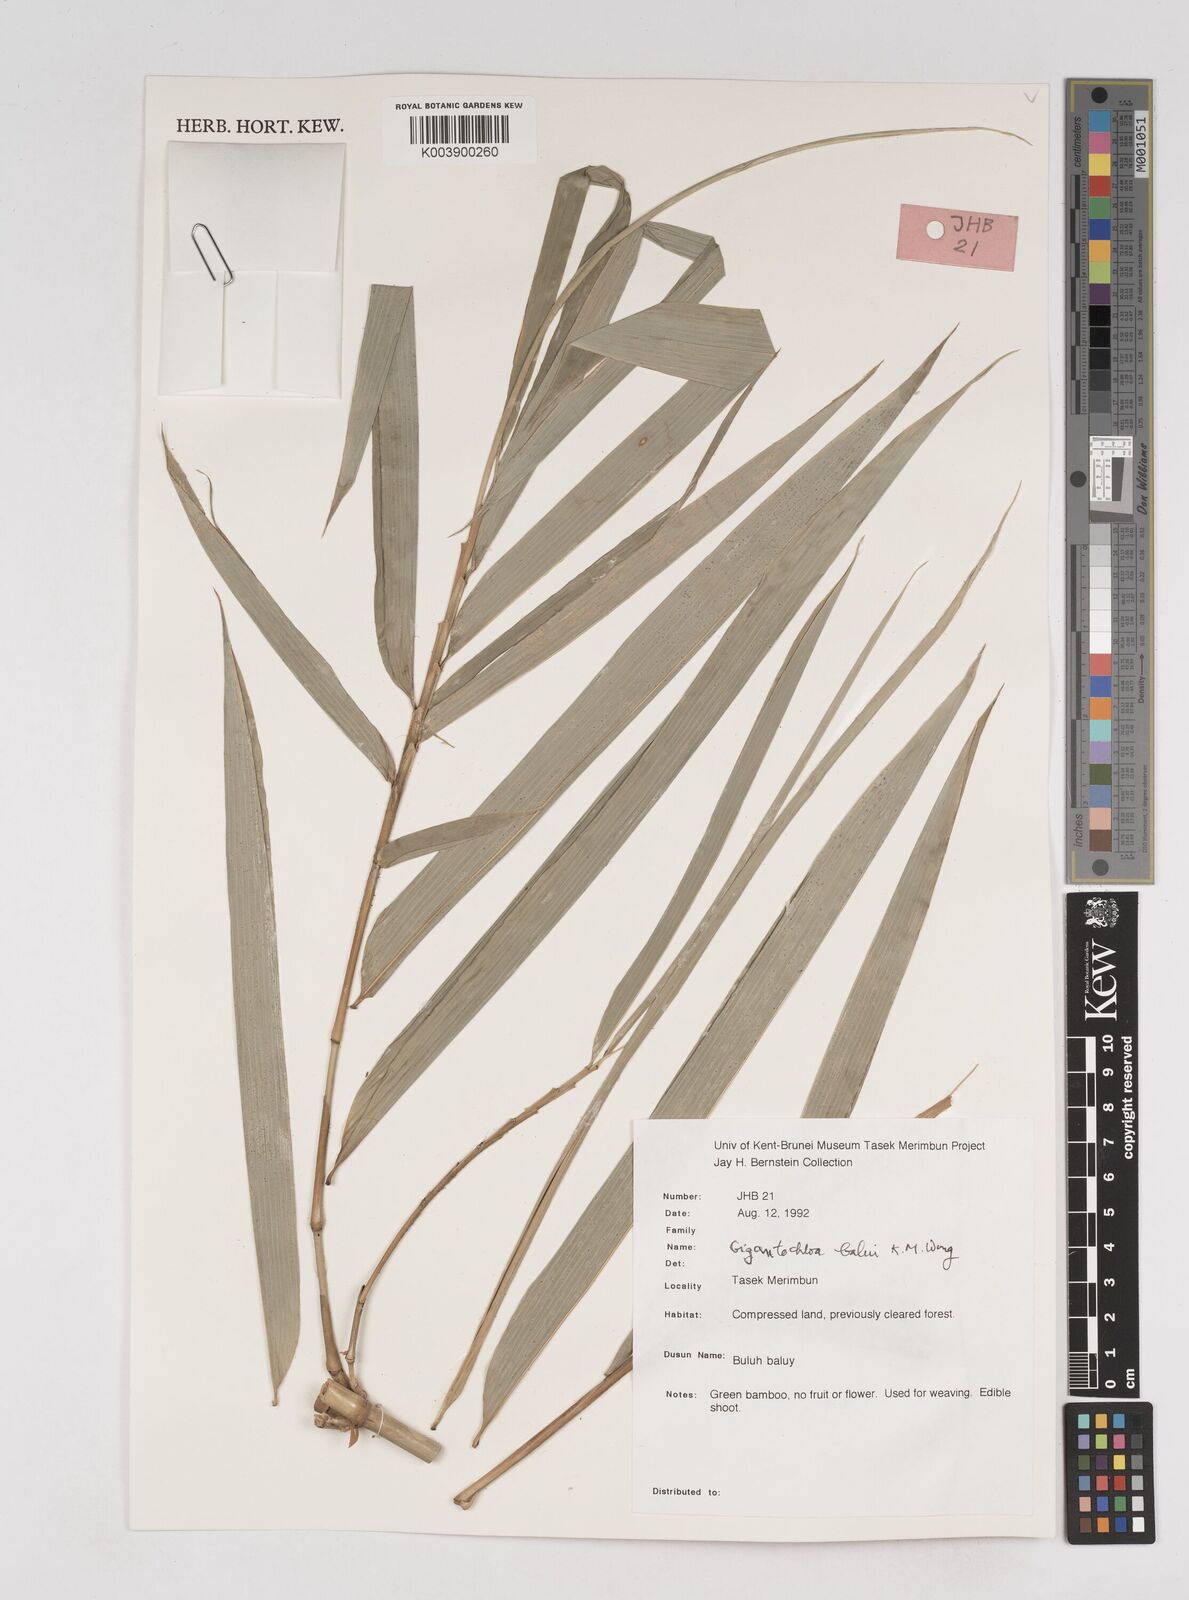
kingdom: Plantae
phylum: Tracheophyta
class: Liliopsida
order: Poales
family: Poaceae
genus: Gigantochloa
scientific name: Gigantochloa balui
